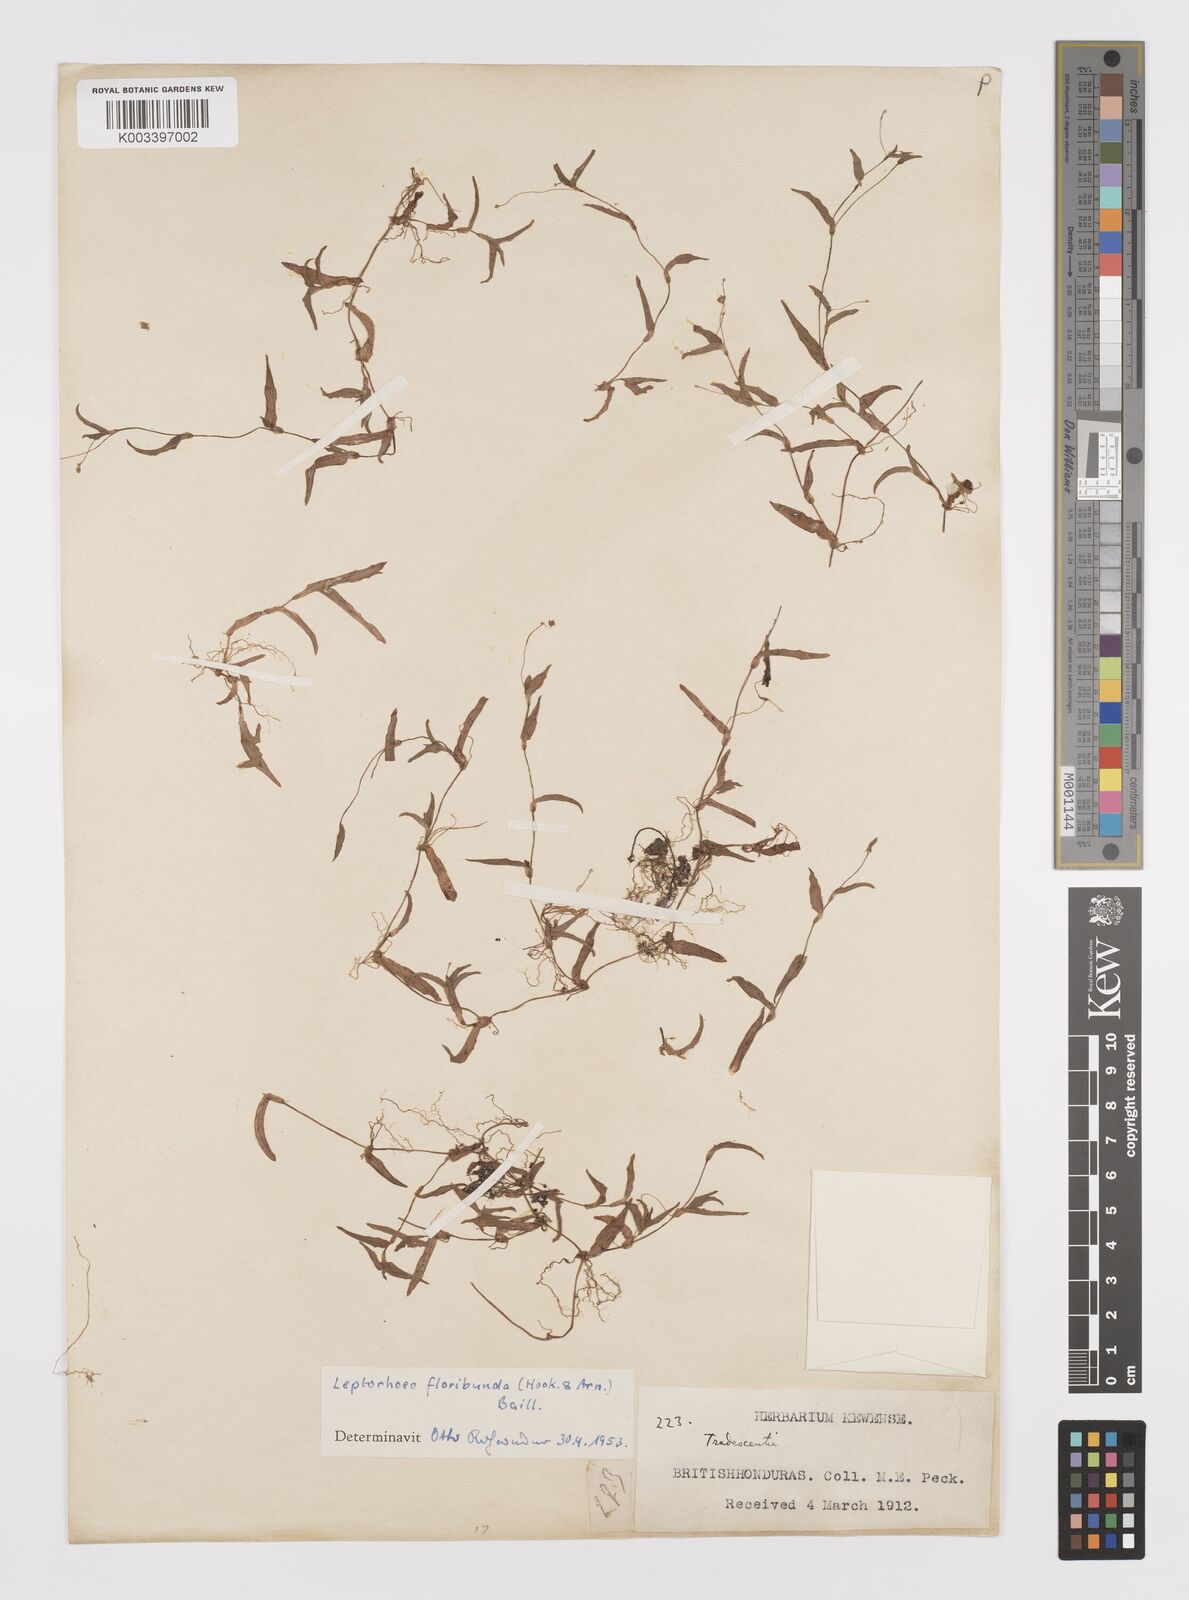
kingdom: Plantae
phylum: Tracheophyta
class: Liliopsida
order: Commelinales
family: Commelinaceae
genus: Callisia
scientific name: Callisia filiformis
